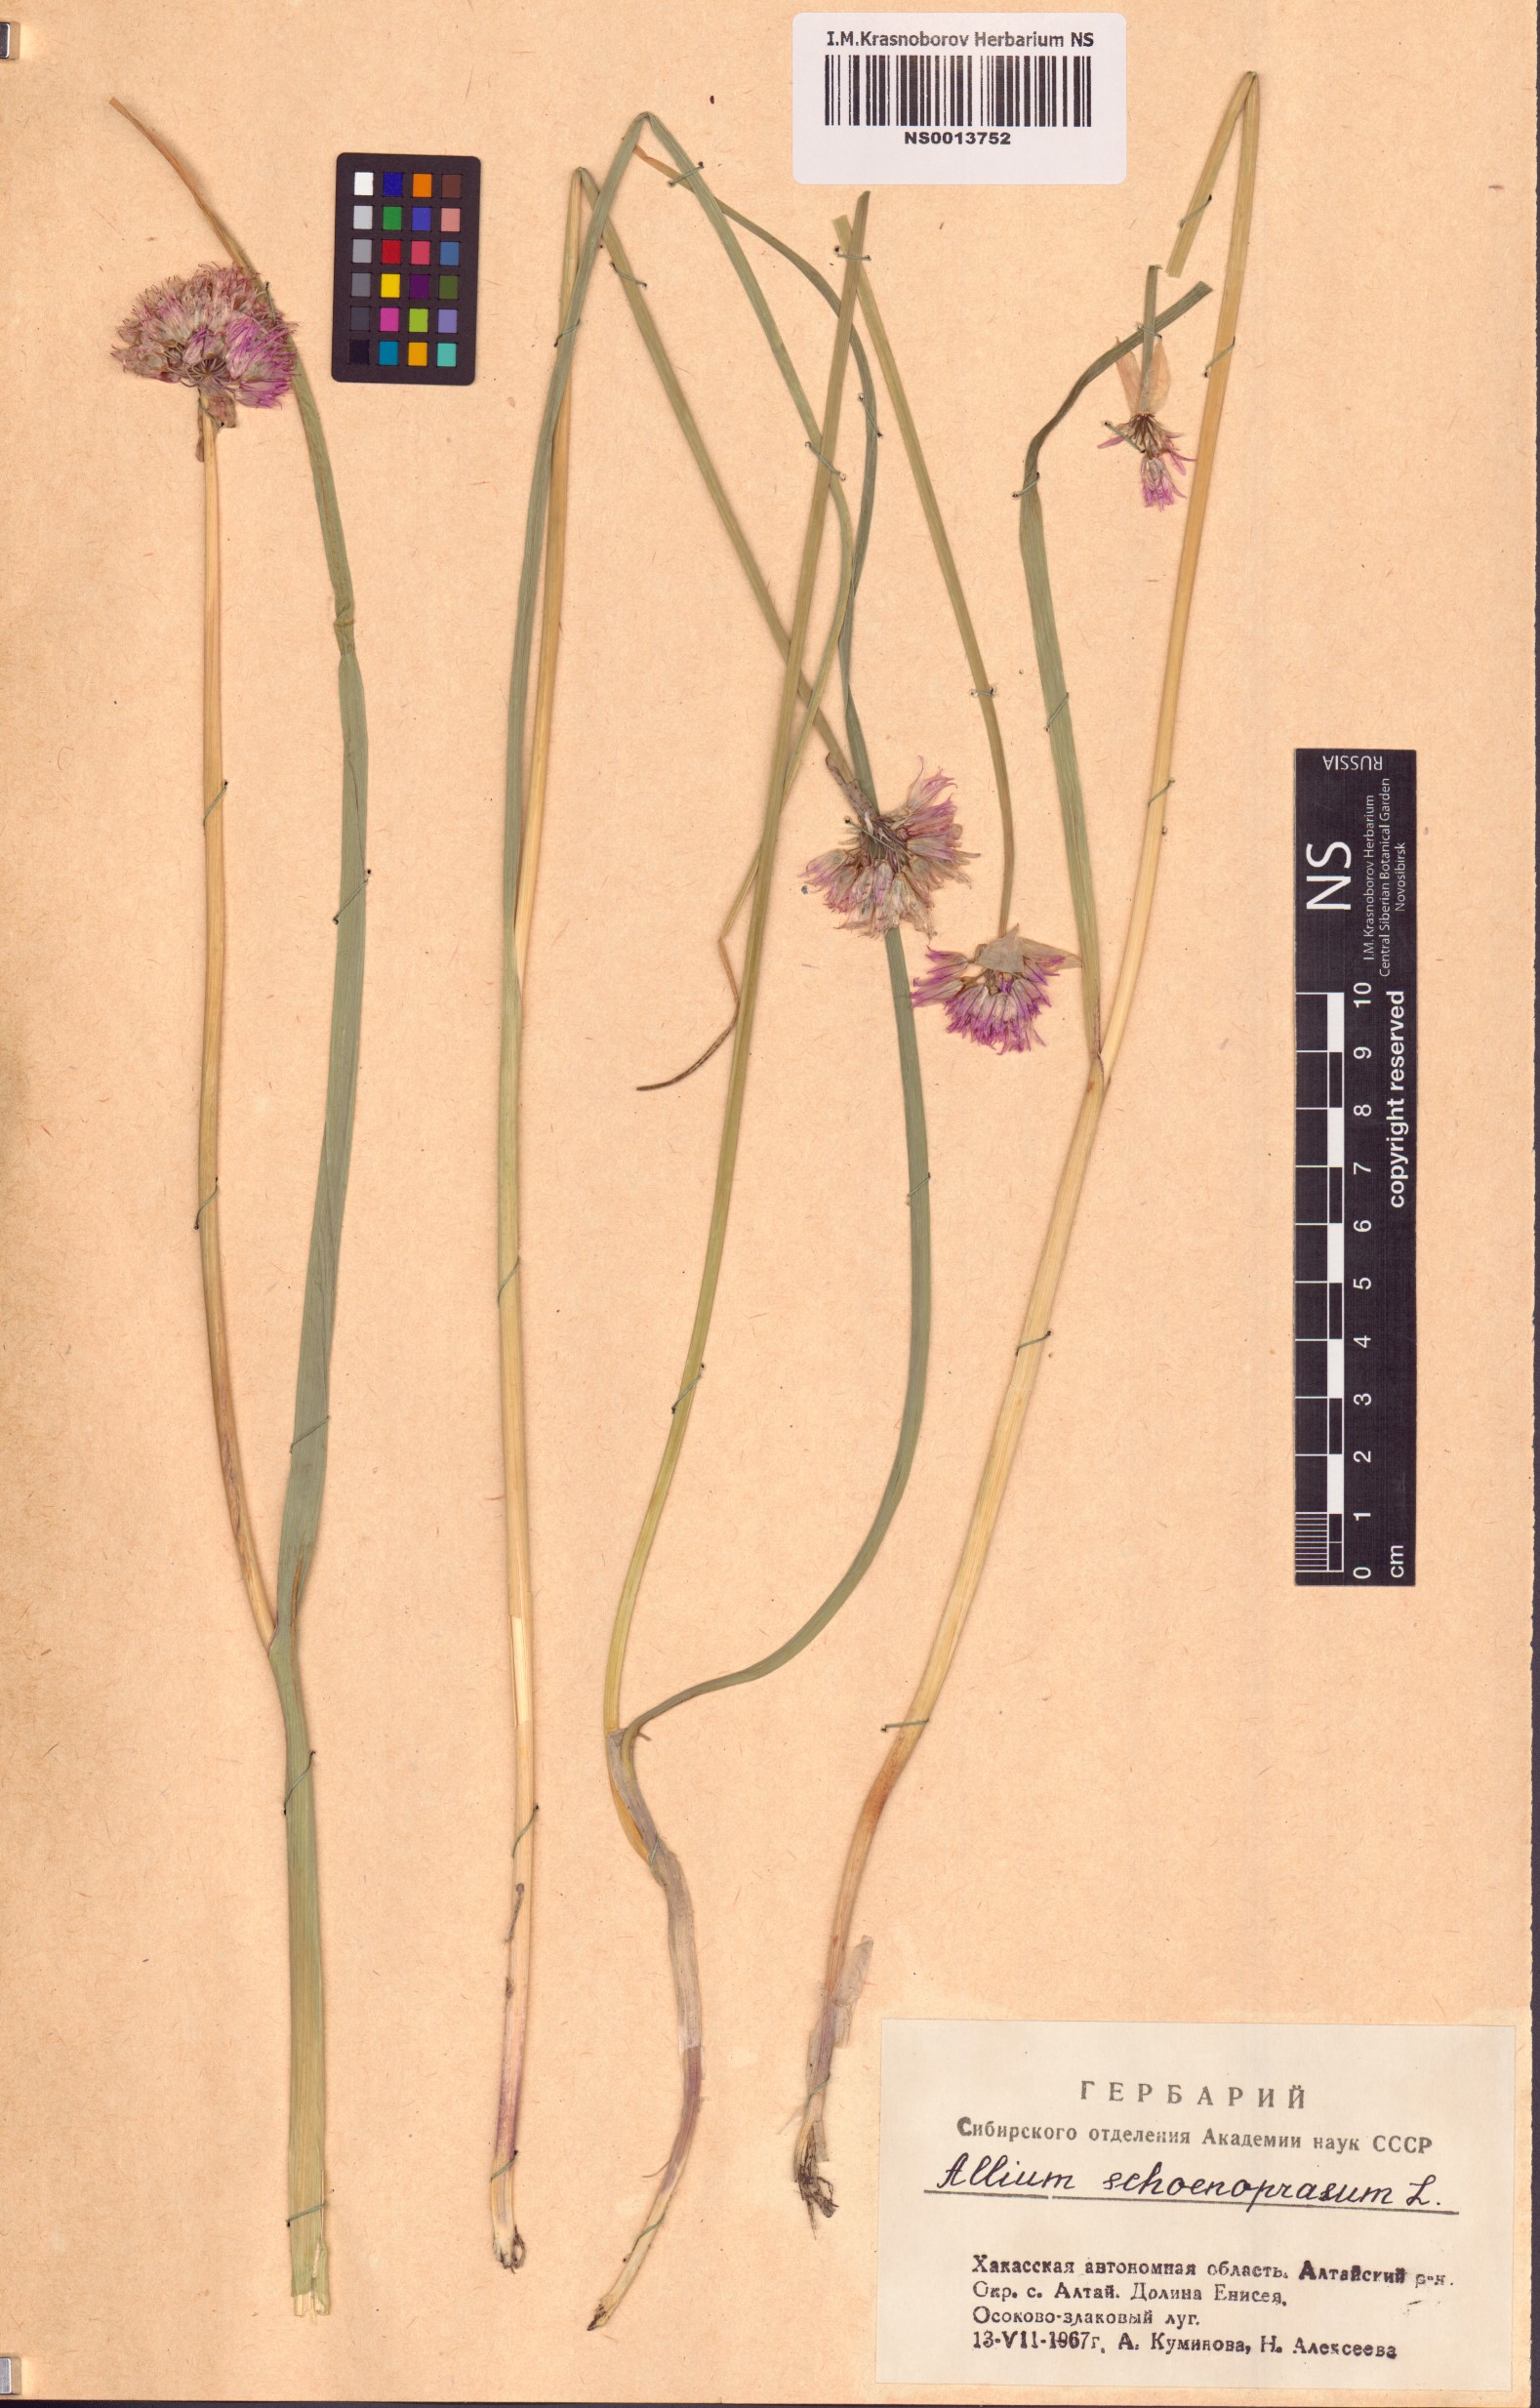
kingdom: Plantae
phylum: Tracheophyta
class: Liliopsida
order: Asparagales
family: Amaryllidaceae
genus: Allium
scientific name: Allium schoenoprasum
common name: Chives
